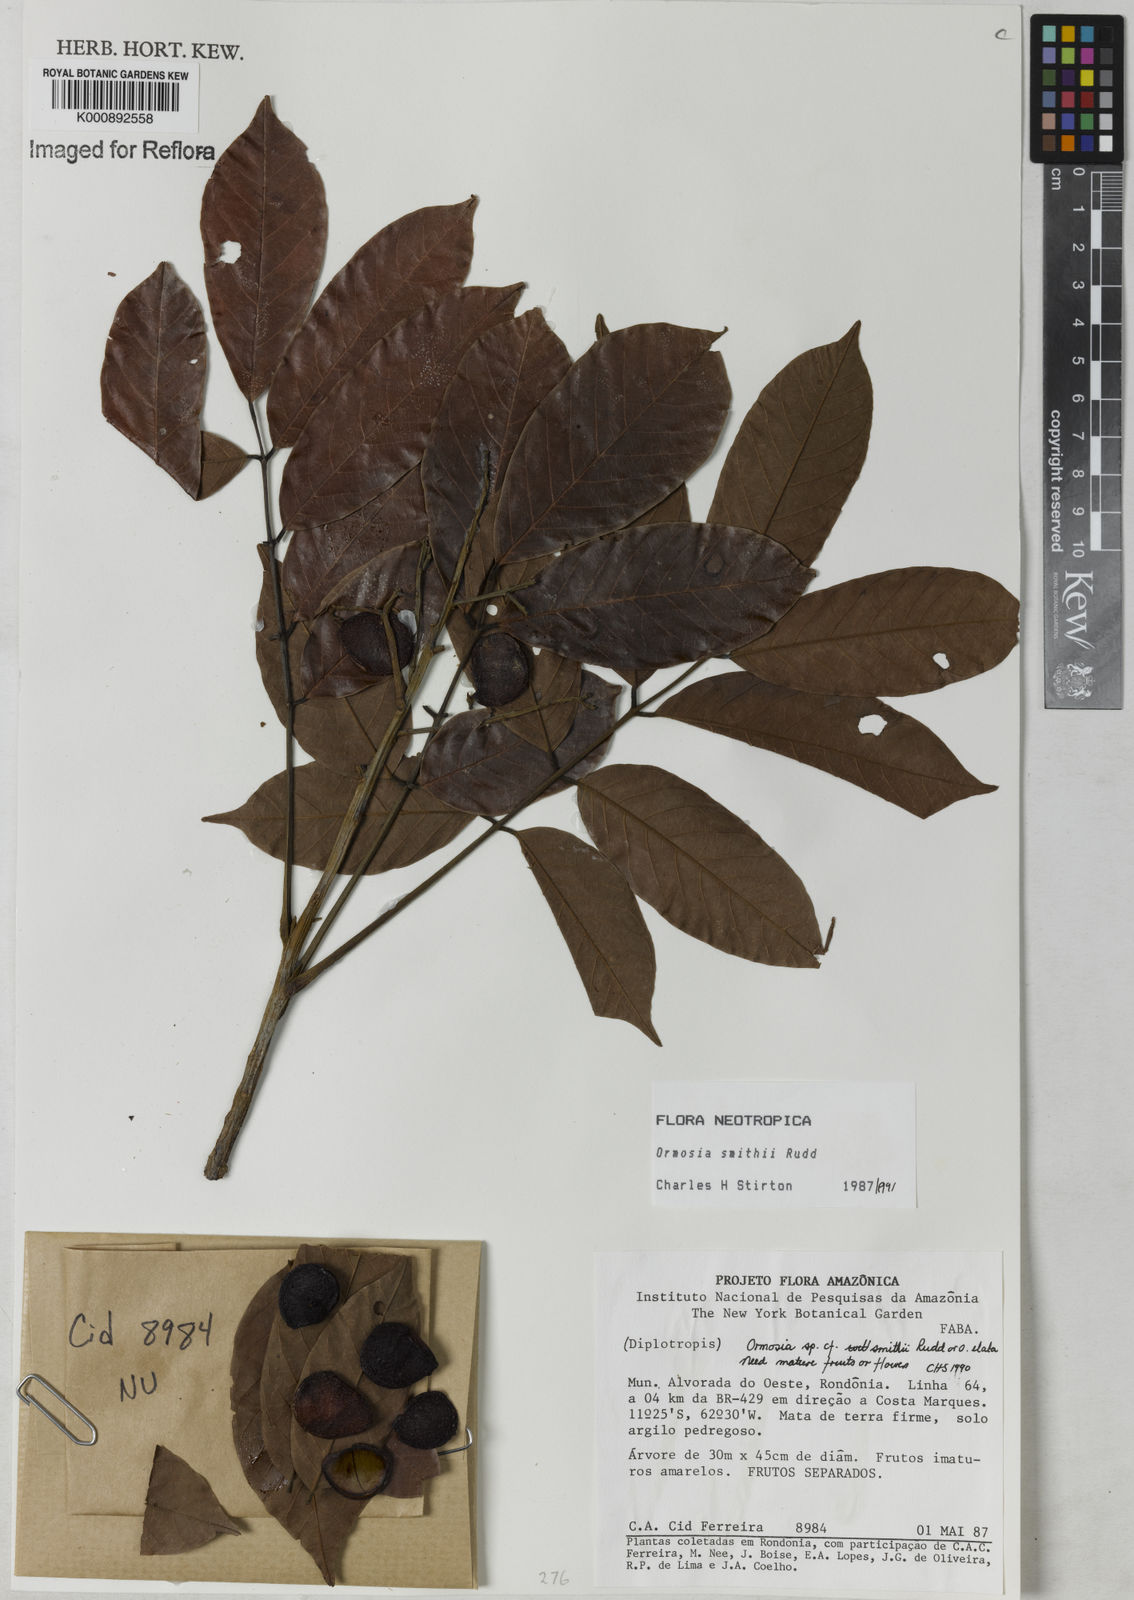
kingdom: Plantae
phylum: Tracheophyta
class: Magnoliopsida
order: Fabales
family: Fabaceae
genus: Ormosia
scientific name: Ormosia smithii
